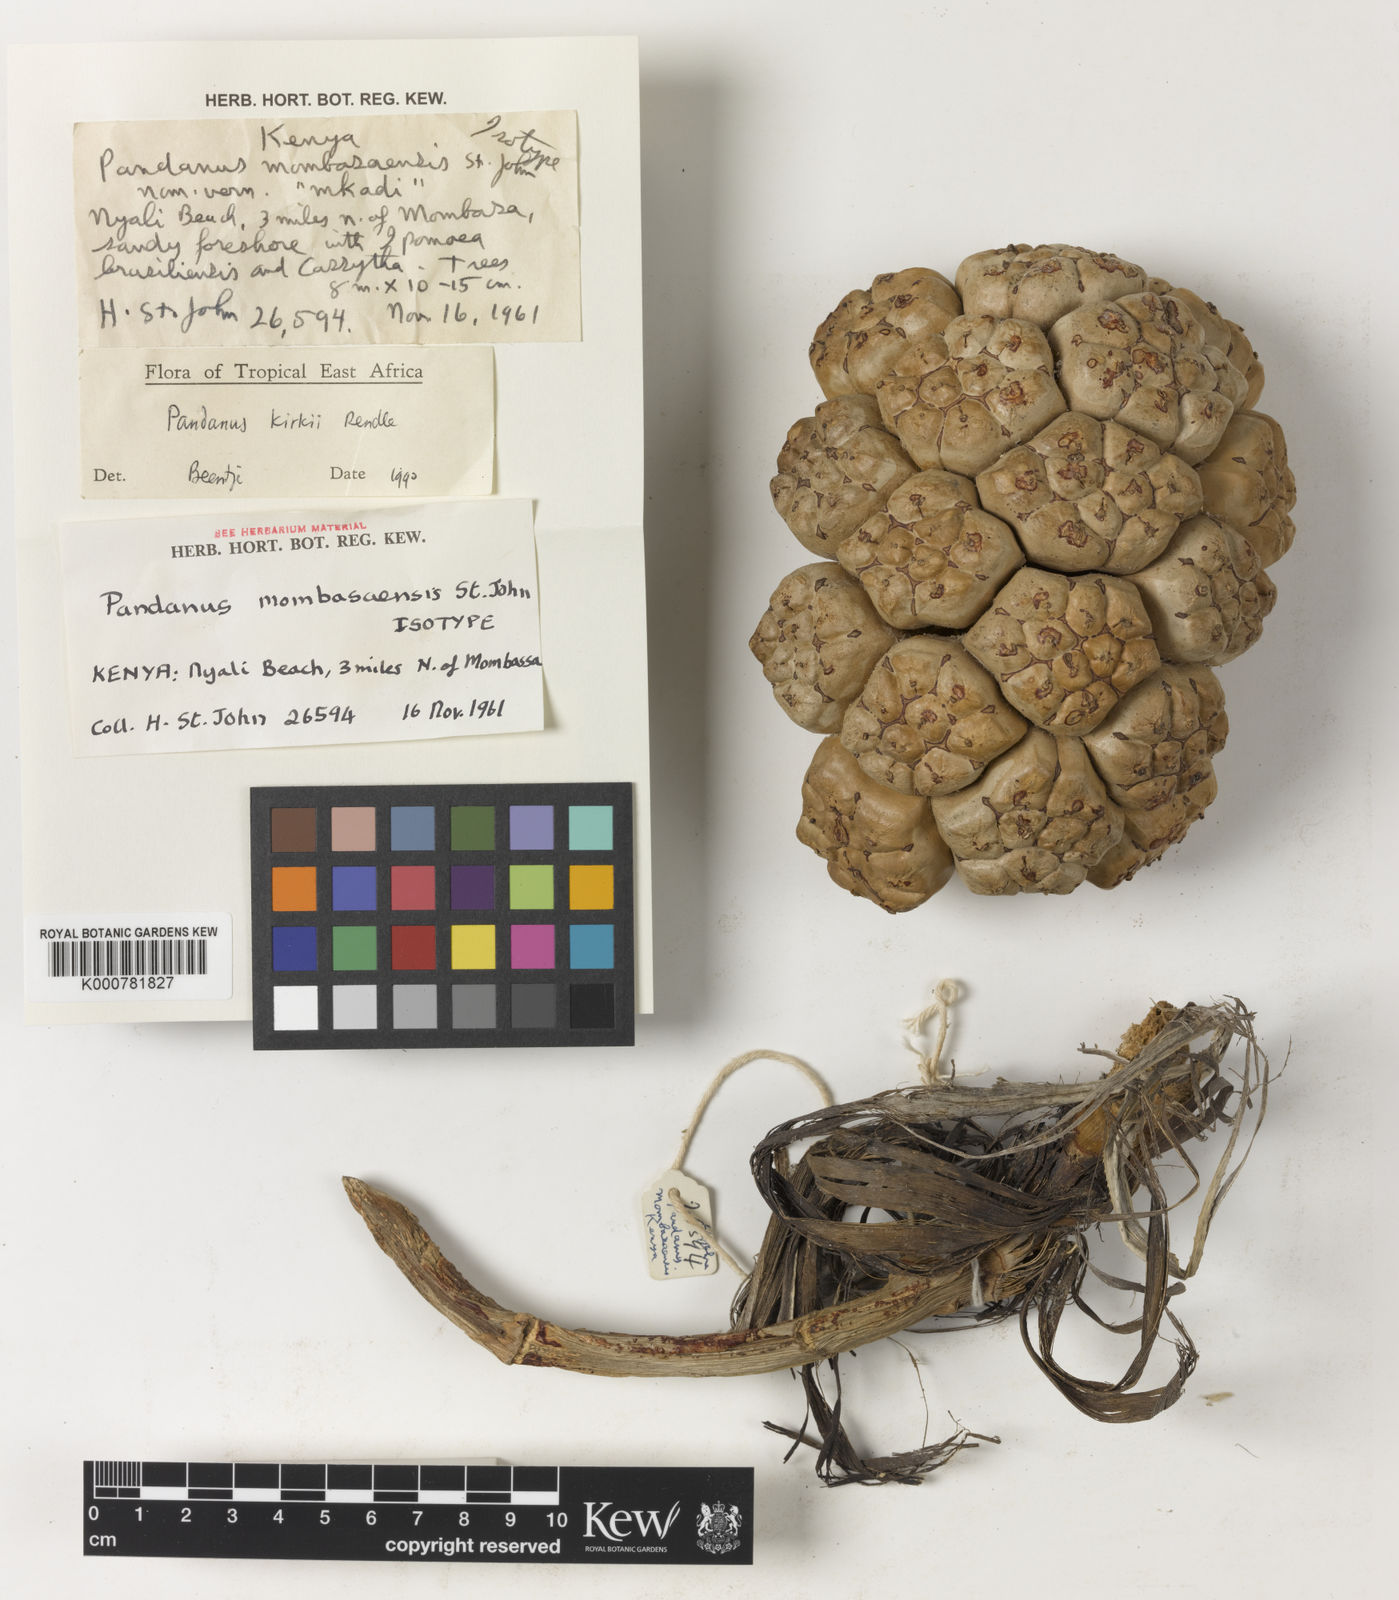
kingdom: Plantae
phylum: Tracheophyta
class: Liliopsida
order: Pandanales
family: Pandanaceae
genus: Pandanus
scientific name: Pandanus kirkii
